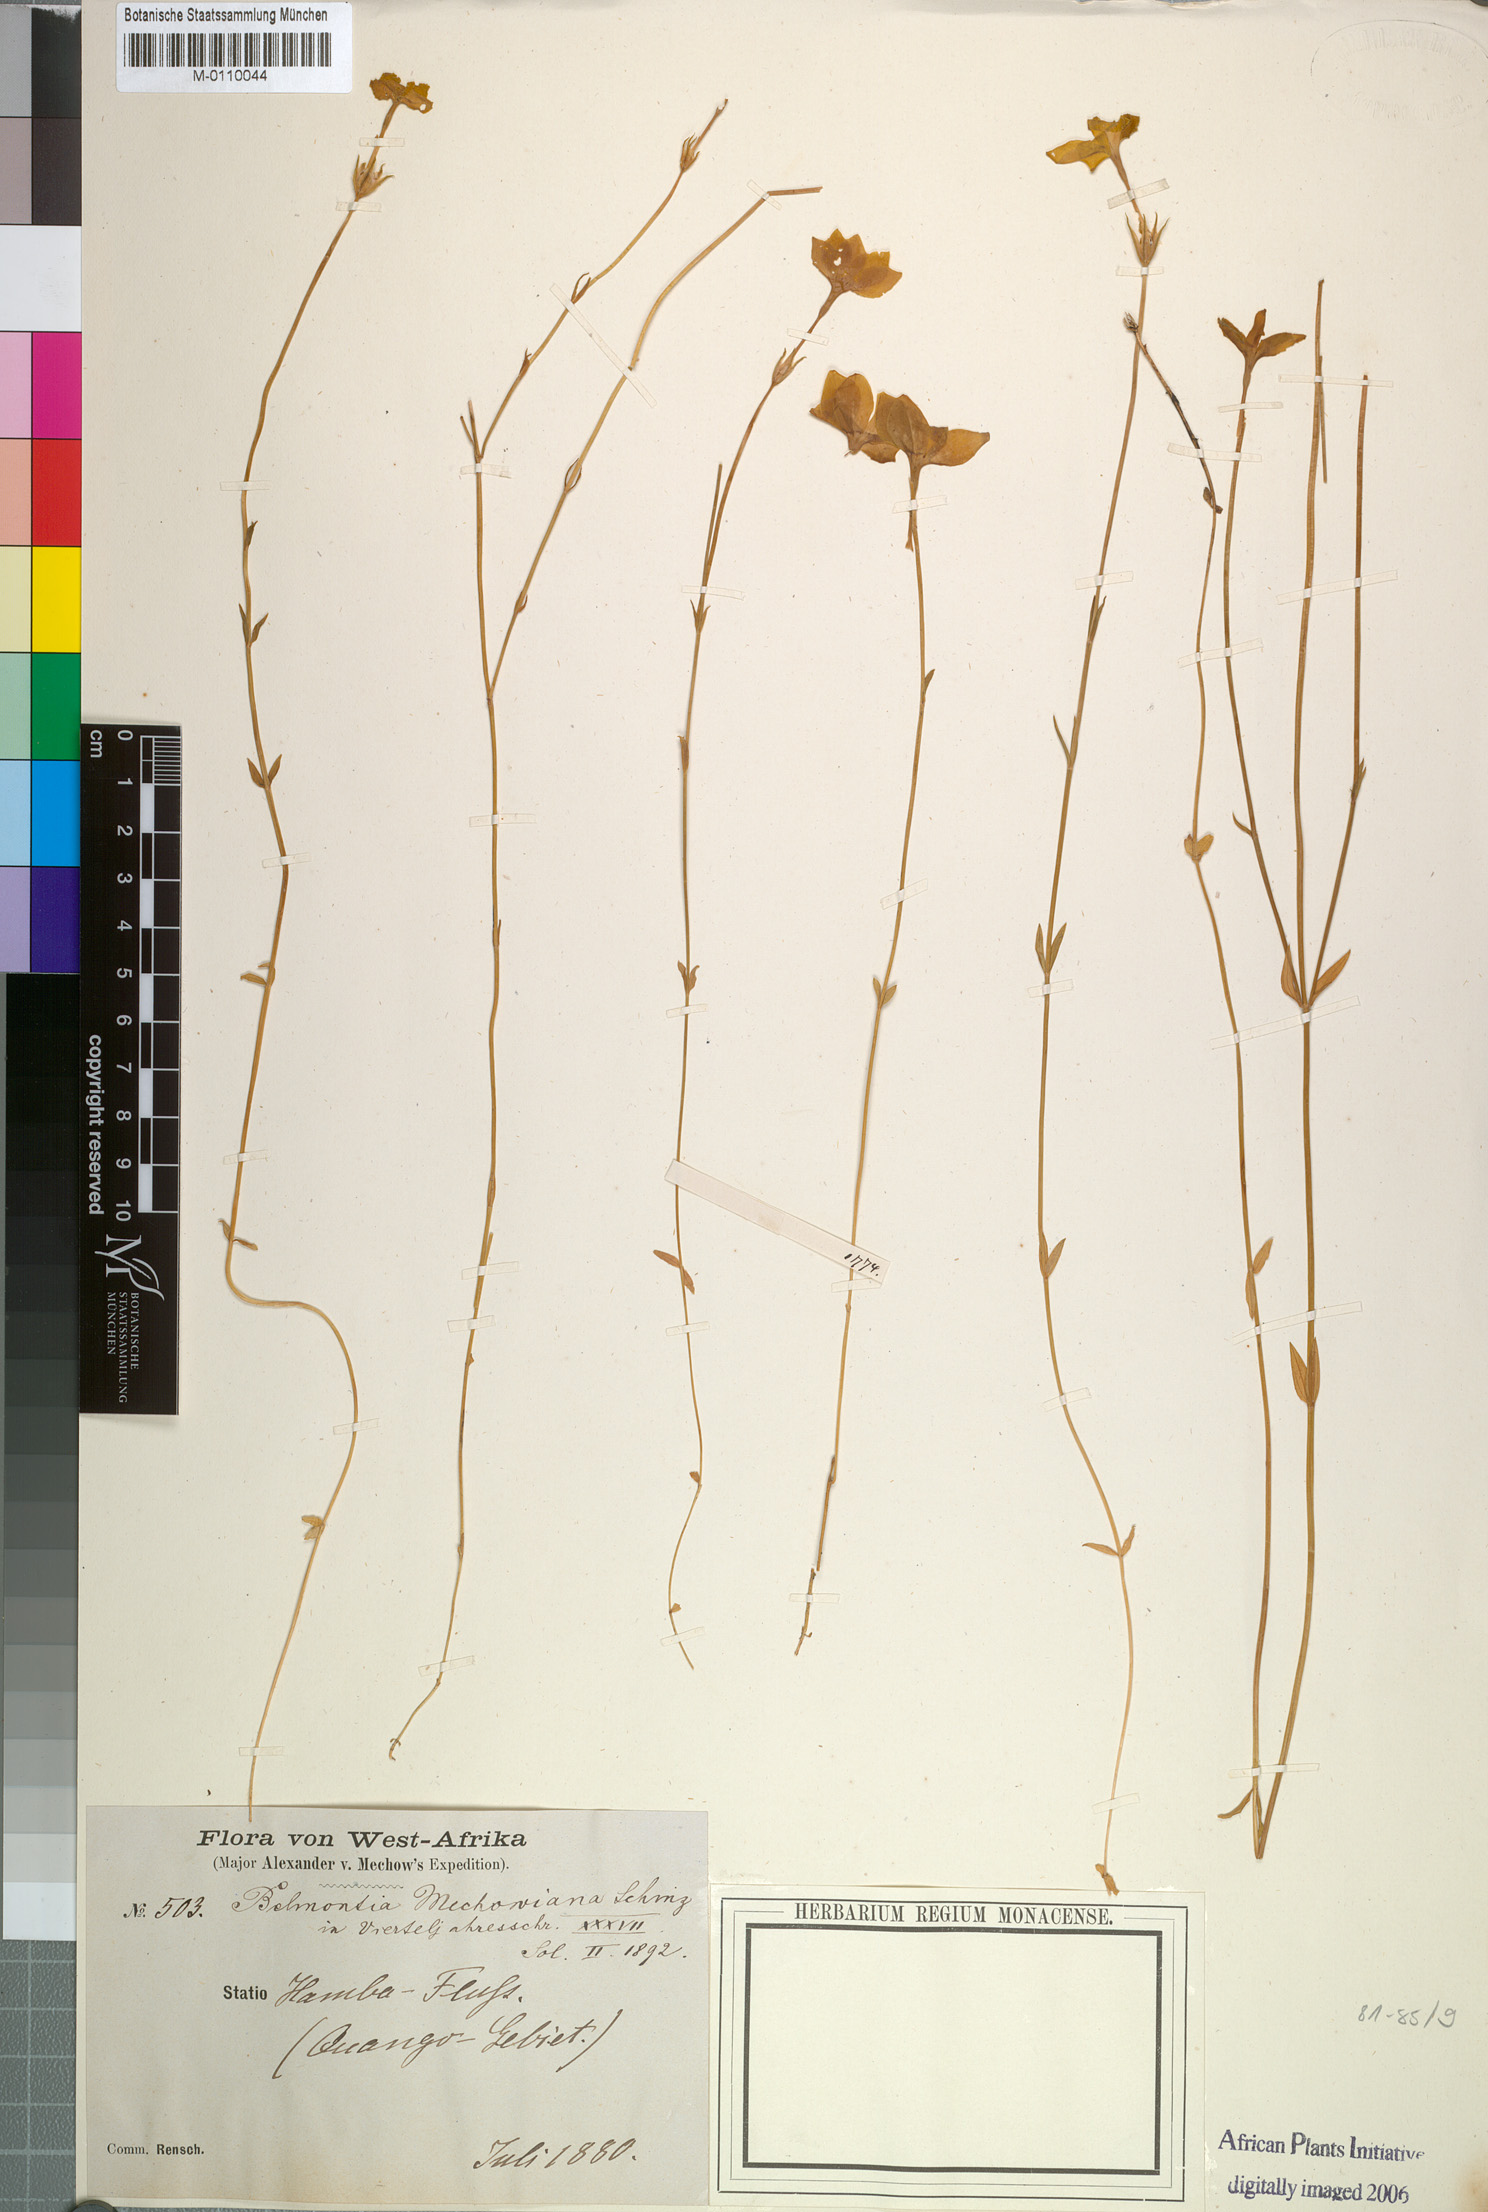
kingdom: Plantae
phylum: Tracheophyta
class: Magnoliopsida
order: Gentianales
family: Gentianaceae
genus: Exochaenium
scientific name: Exochaenium teuszii
